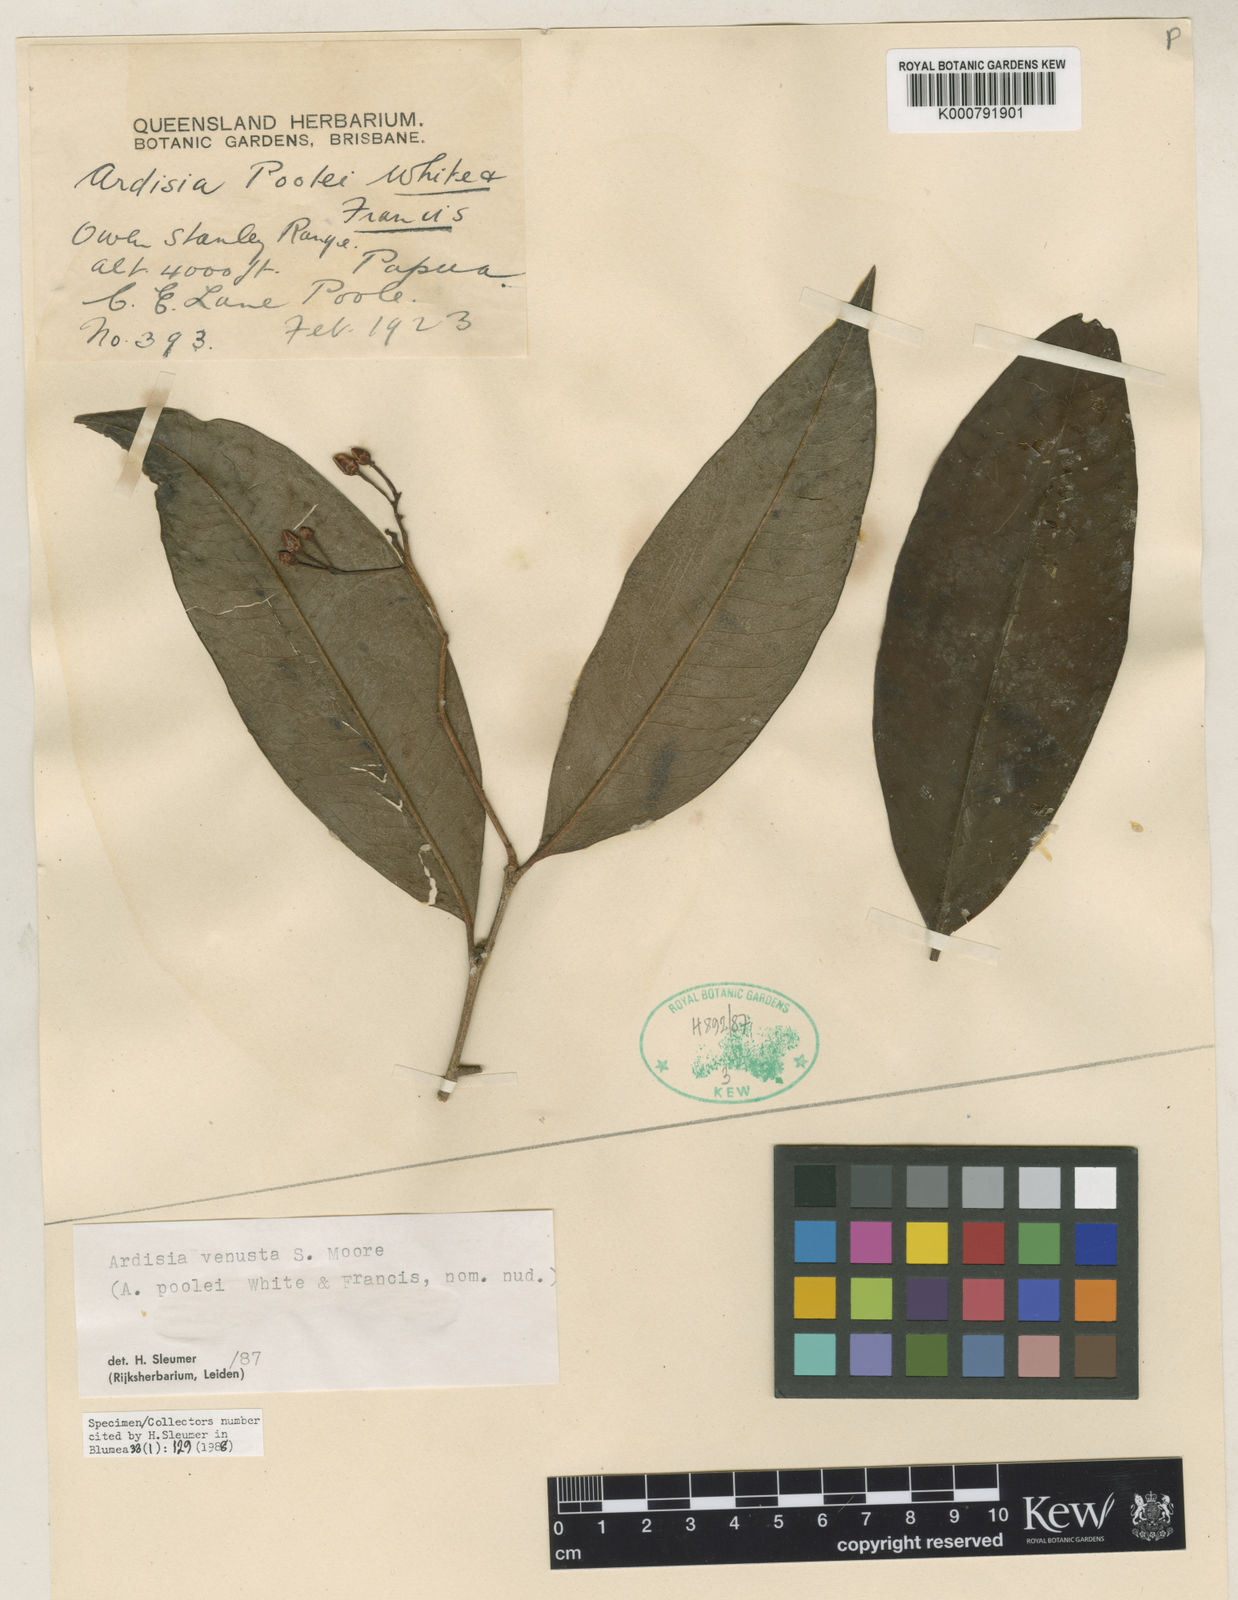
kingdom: Plantae
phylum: Tracheophyta
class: Magnoliopsida
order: Ericales
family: Primulaceae
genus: Ardisia
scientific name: Ardisia venusta
